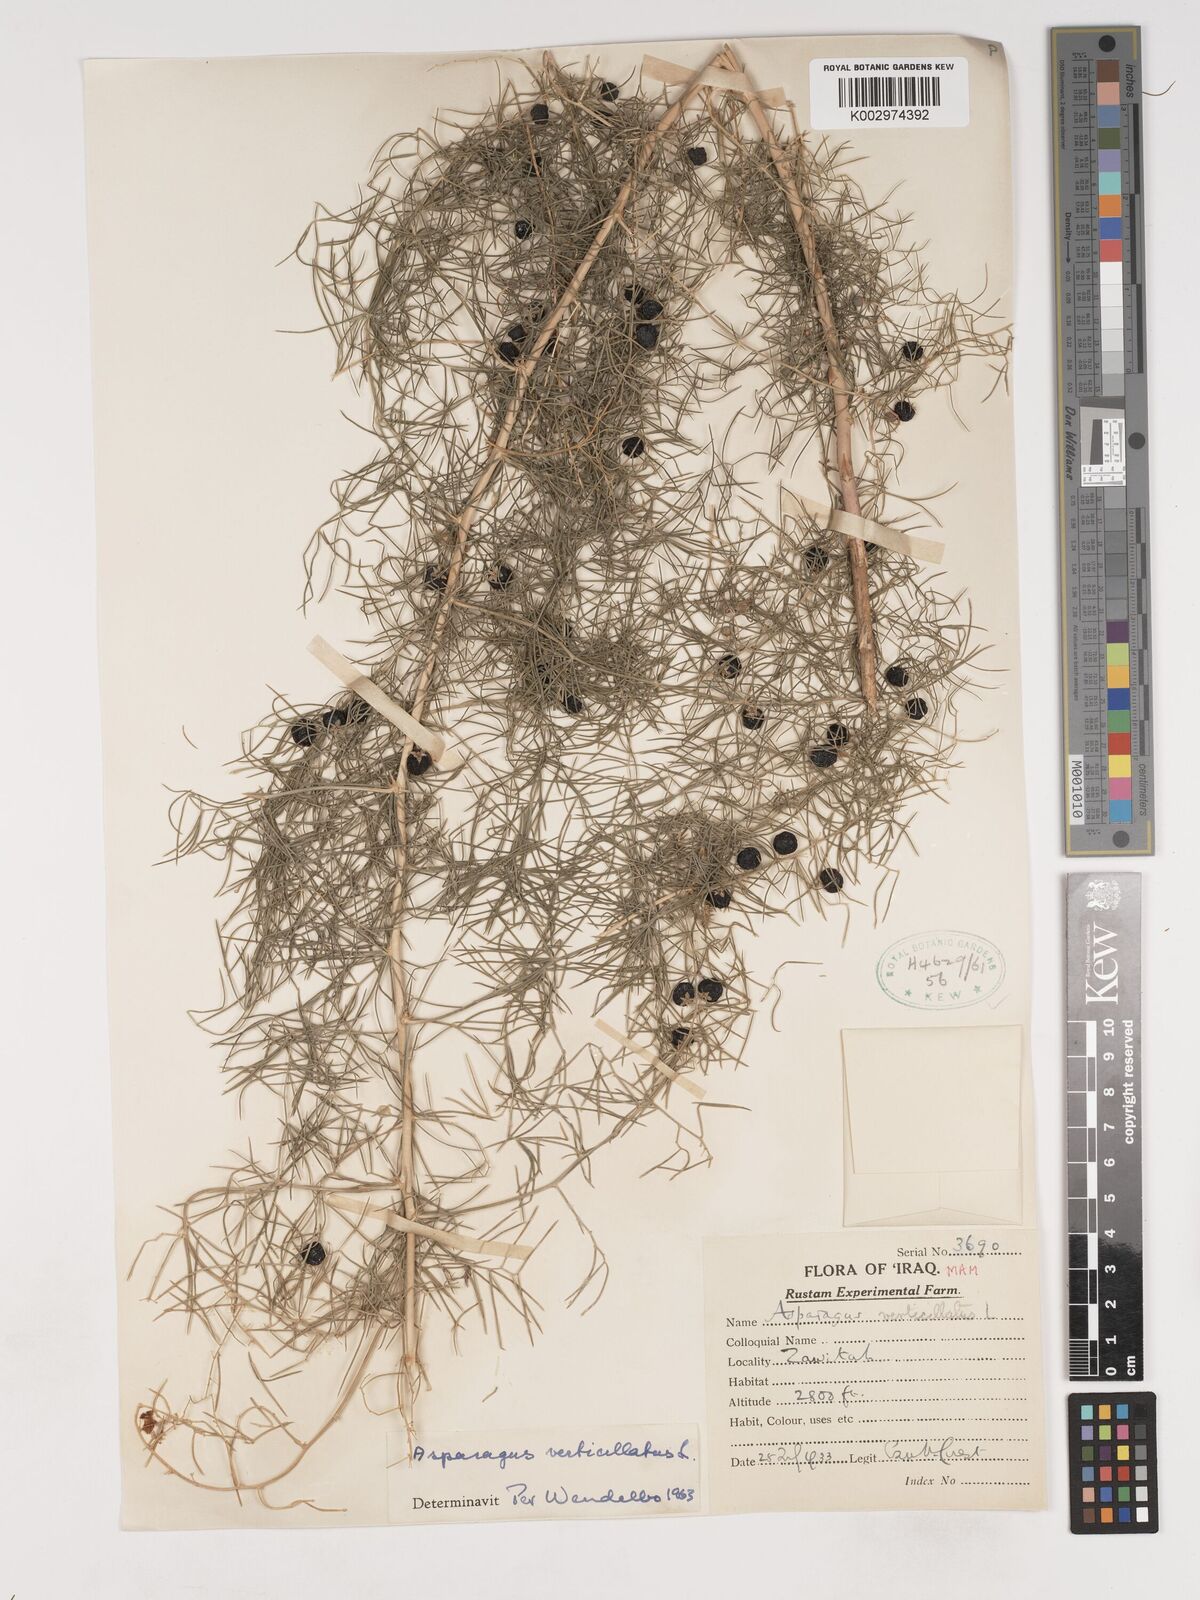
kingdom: Plantae
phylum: Tracheophyta
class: Liliopsida
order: Asparagales
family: Asparagaceae
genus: Asparagus
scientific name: Asparagus verticillatus
